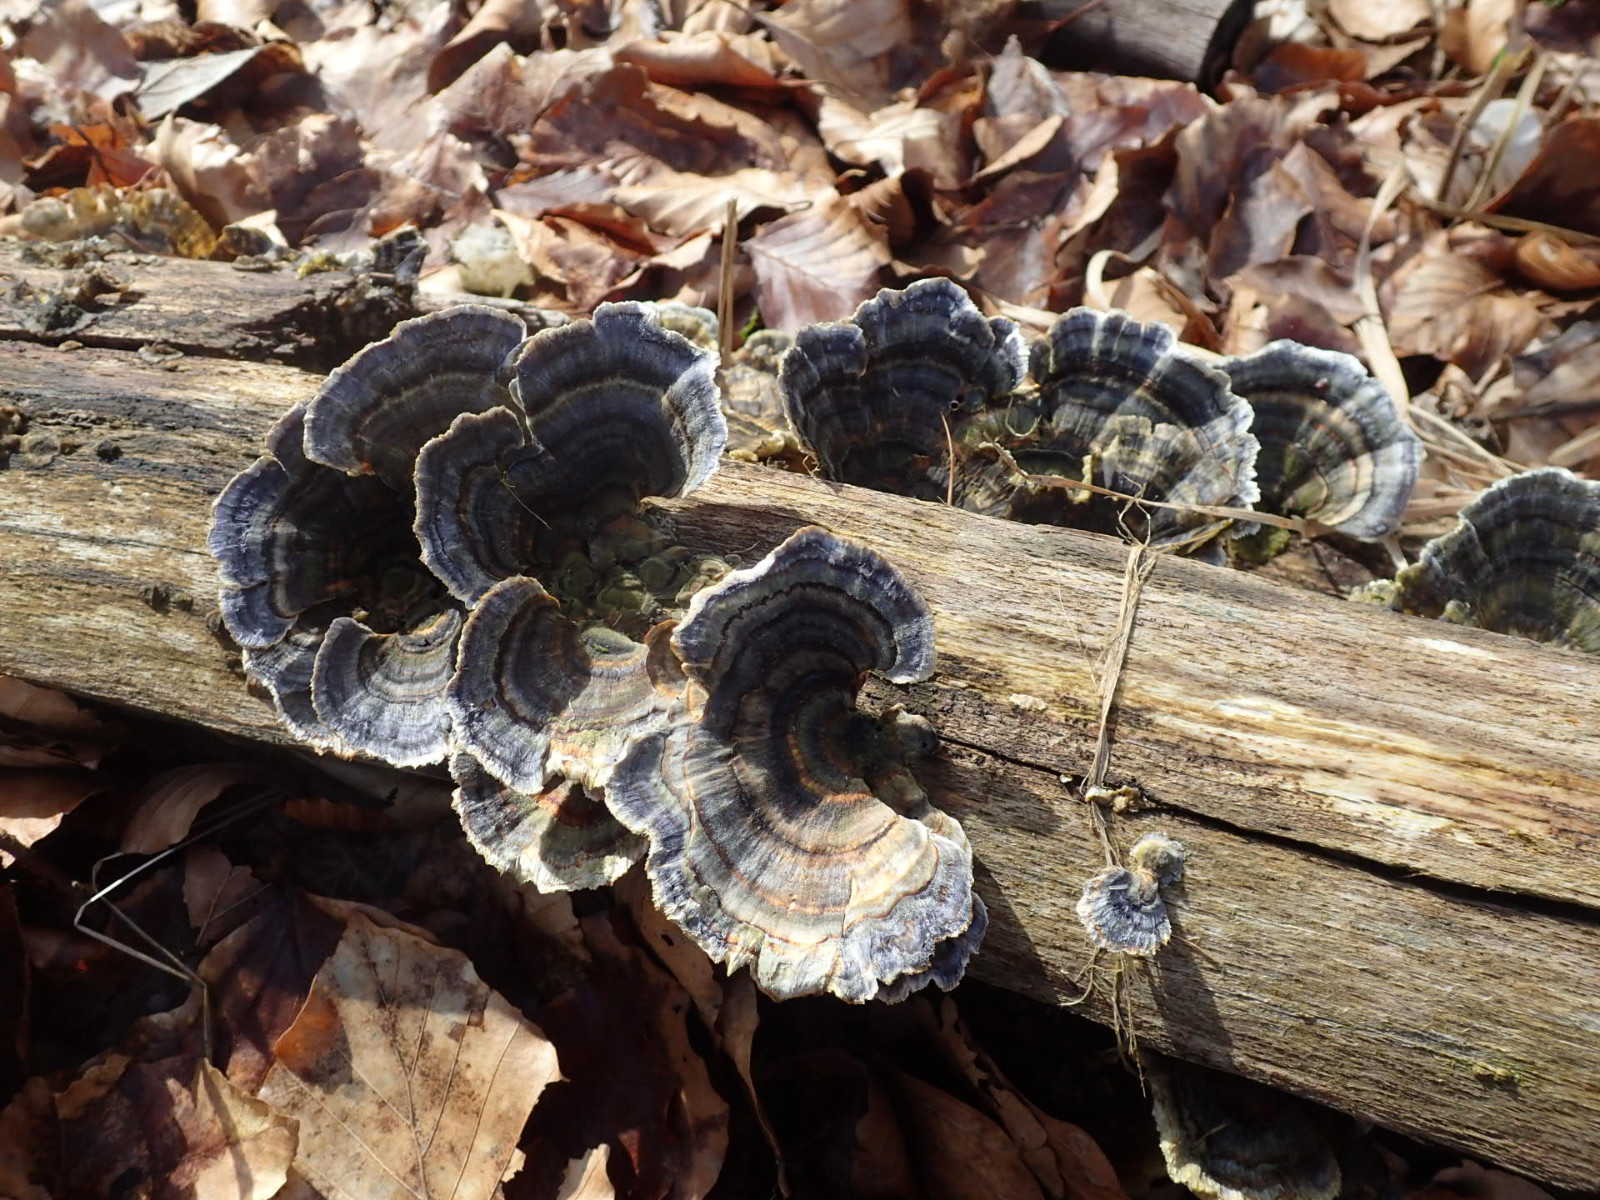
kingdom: Fungi
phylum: Basidiomycota
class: Agaricomycetes
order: Polyporales
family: Polyporaceae
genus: Trametes
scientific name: Trametes versicolor
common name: broget læderporesvamp
